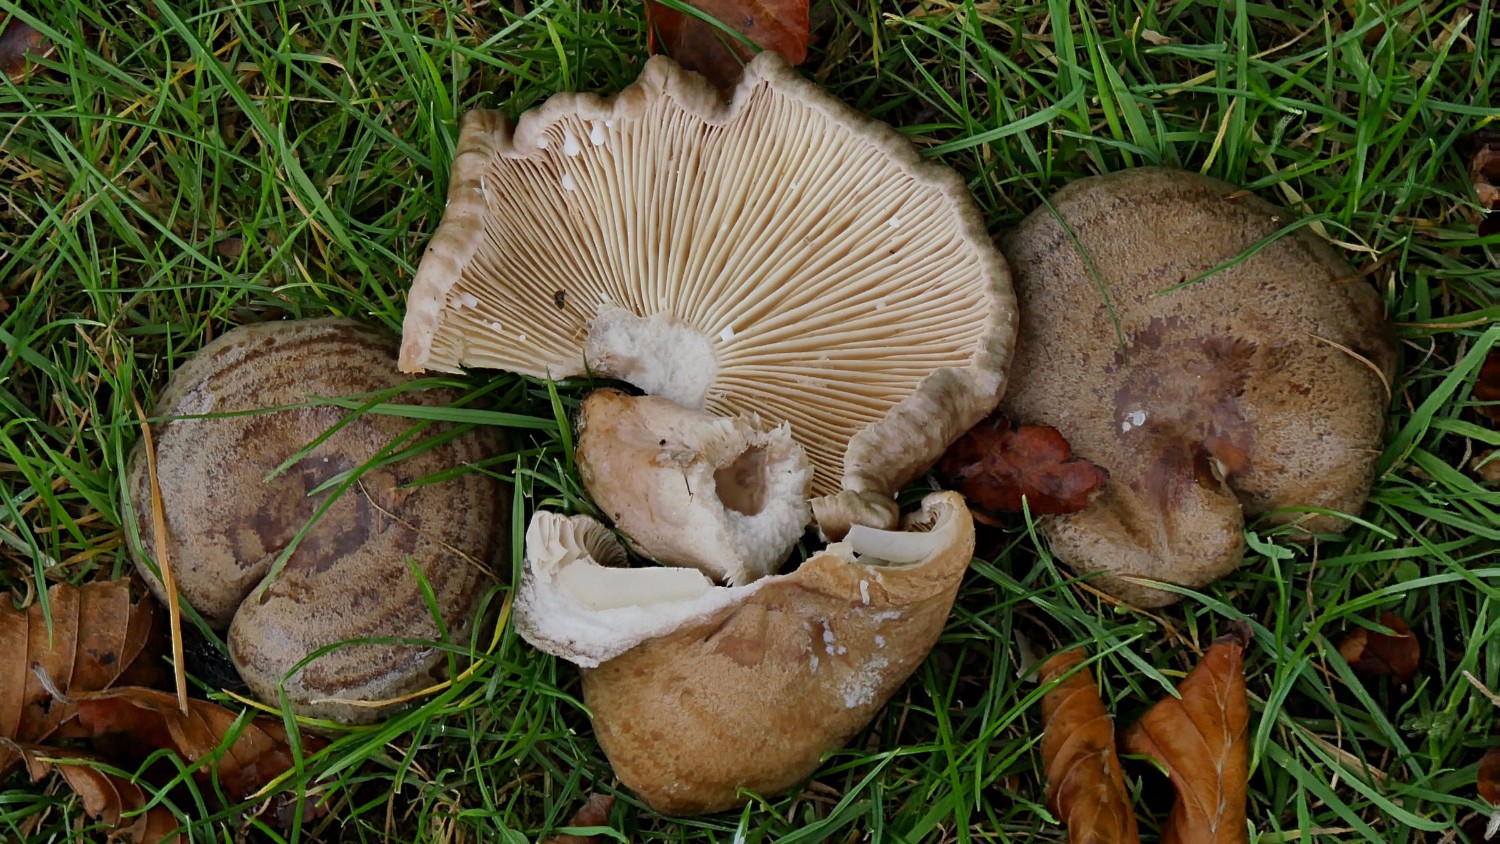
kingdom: Fungi
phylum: Basidiomycota
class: Agaricomycetes
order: Russulales
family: Russulaceae
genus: Lactarius
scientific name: Lactarius circellatus
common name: avnbøg-mælkehat
